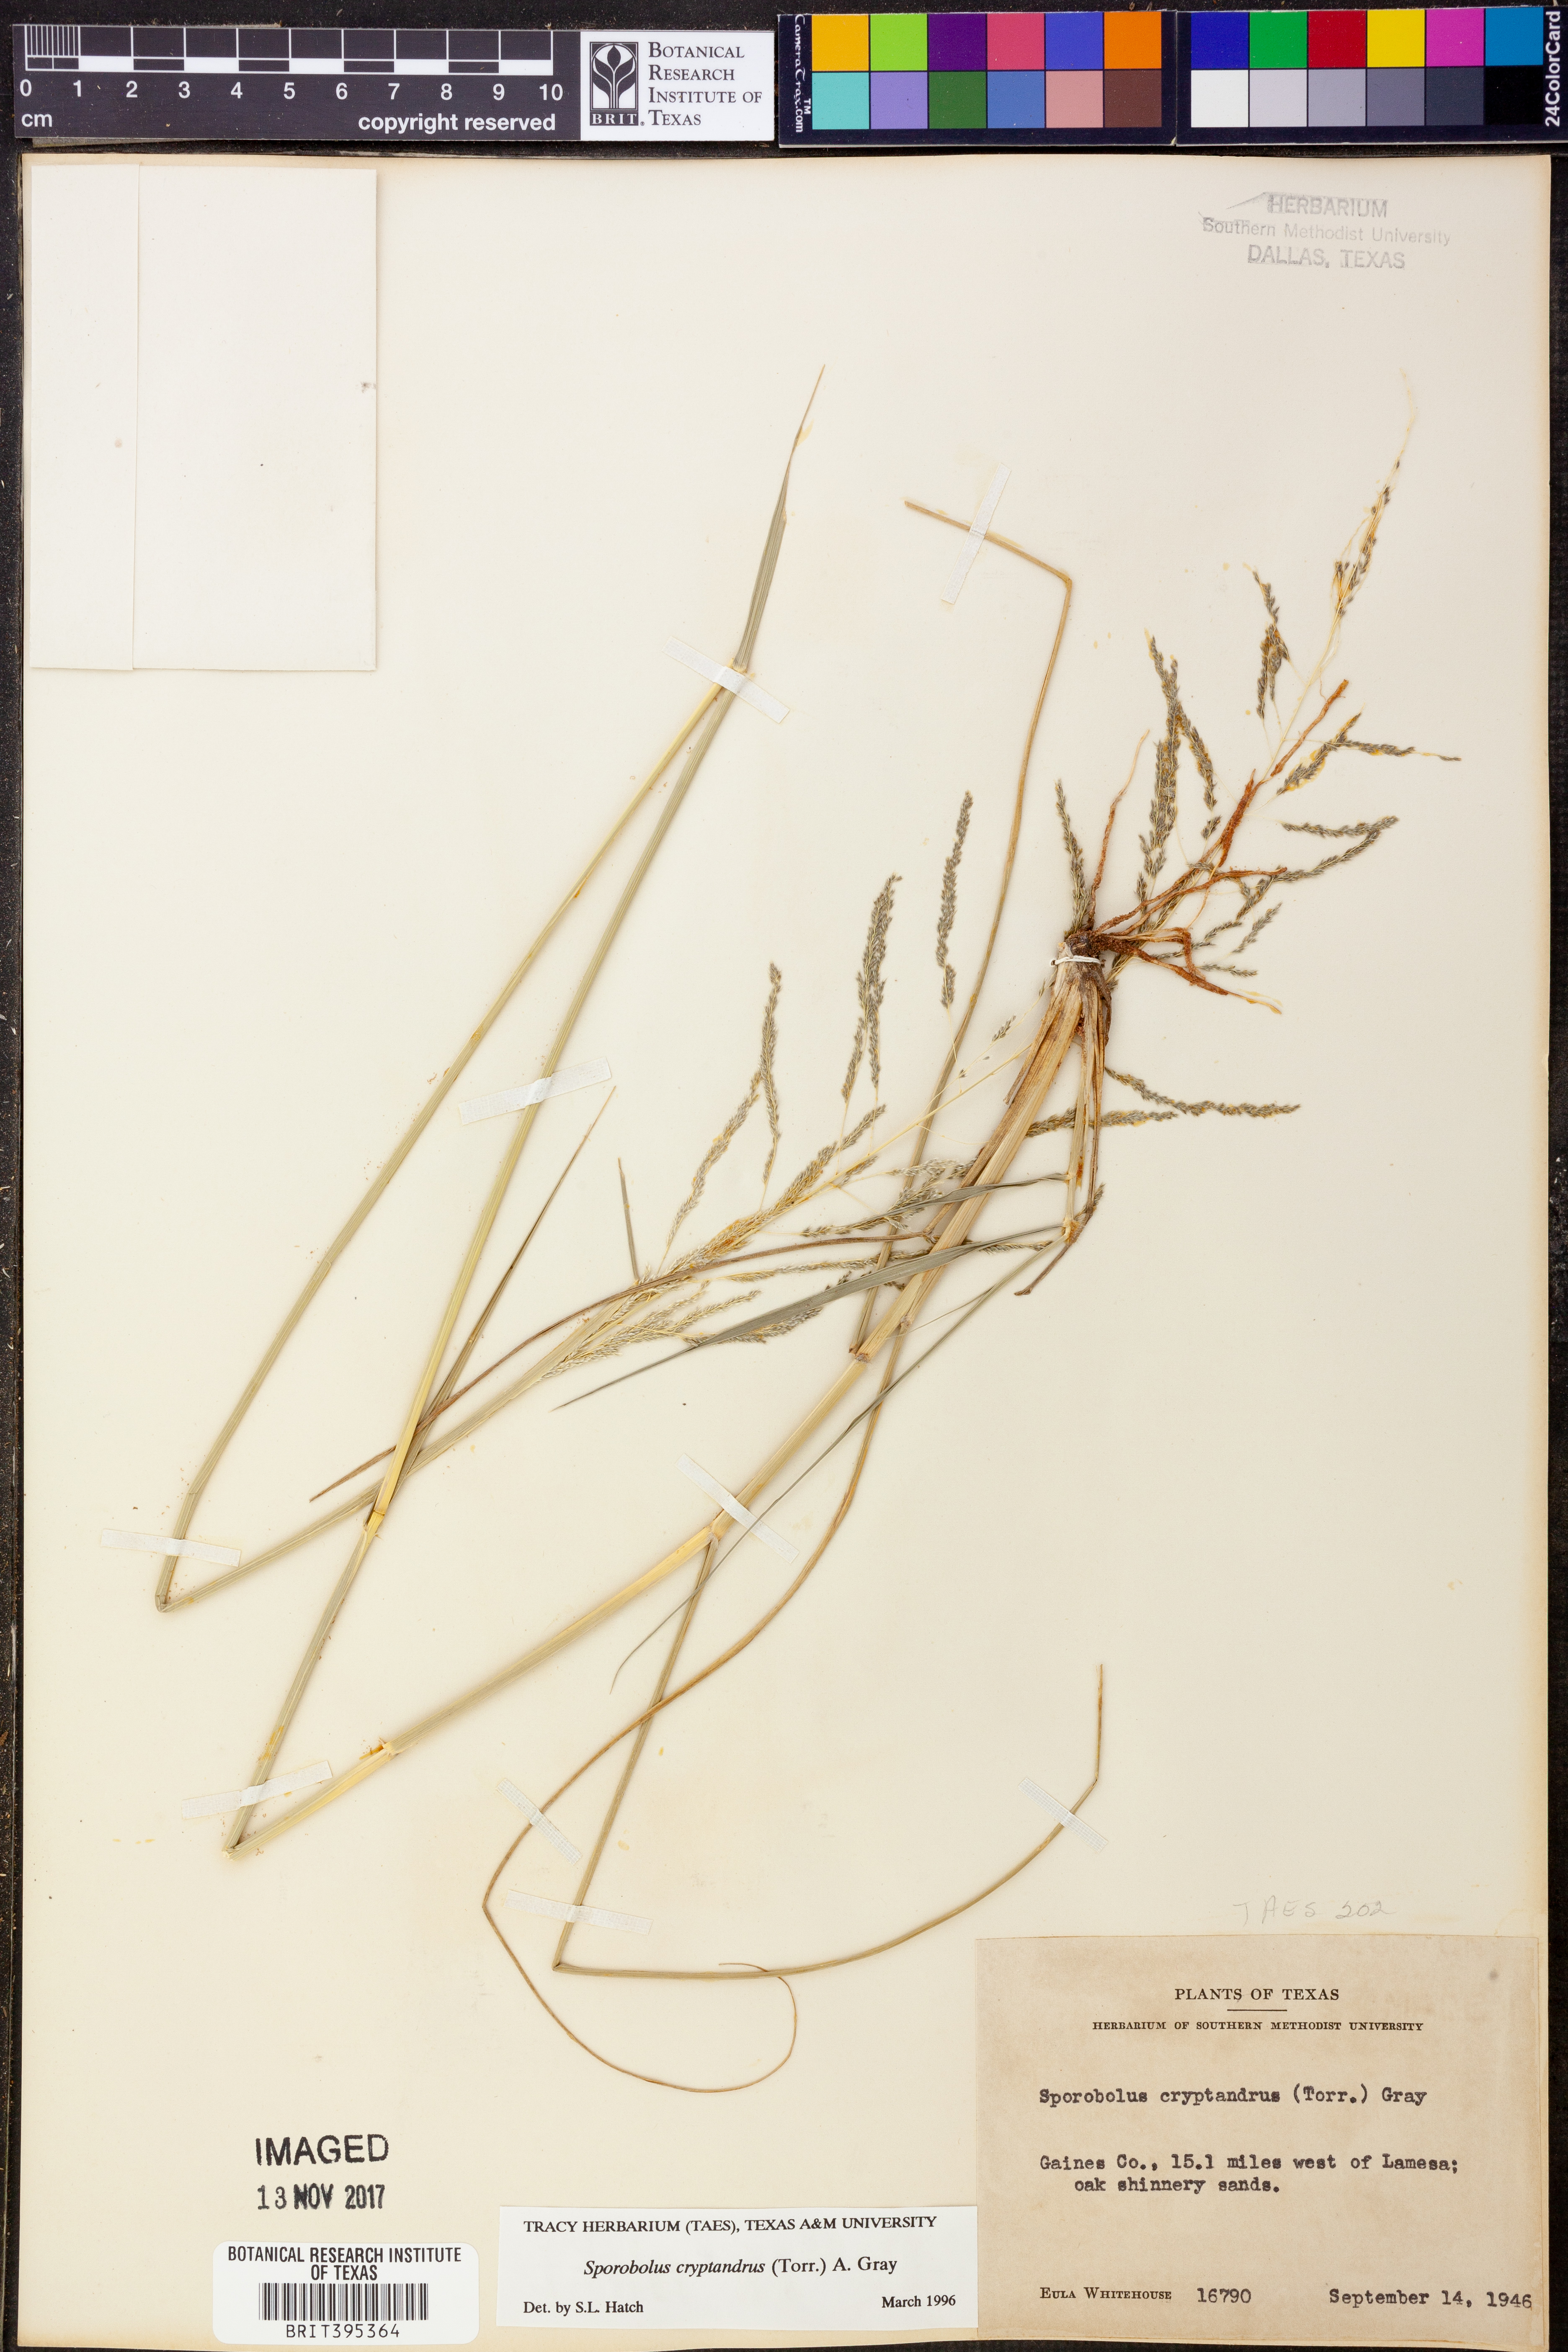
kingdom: Plantae
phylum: Tracheophyta
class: Liliopsida
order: Poales
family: Poaceae
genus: Sporobolus
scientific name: Sporobolus cryptandrus
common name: Sand dropseed
